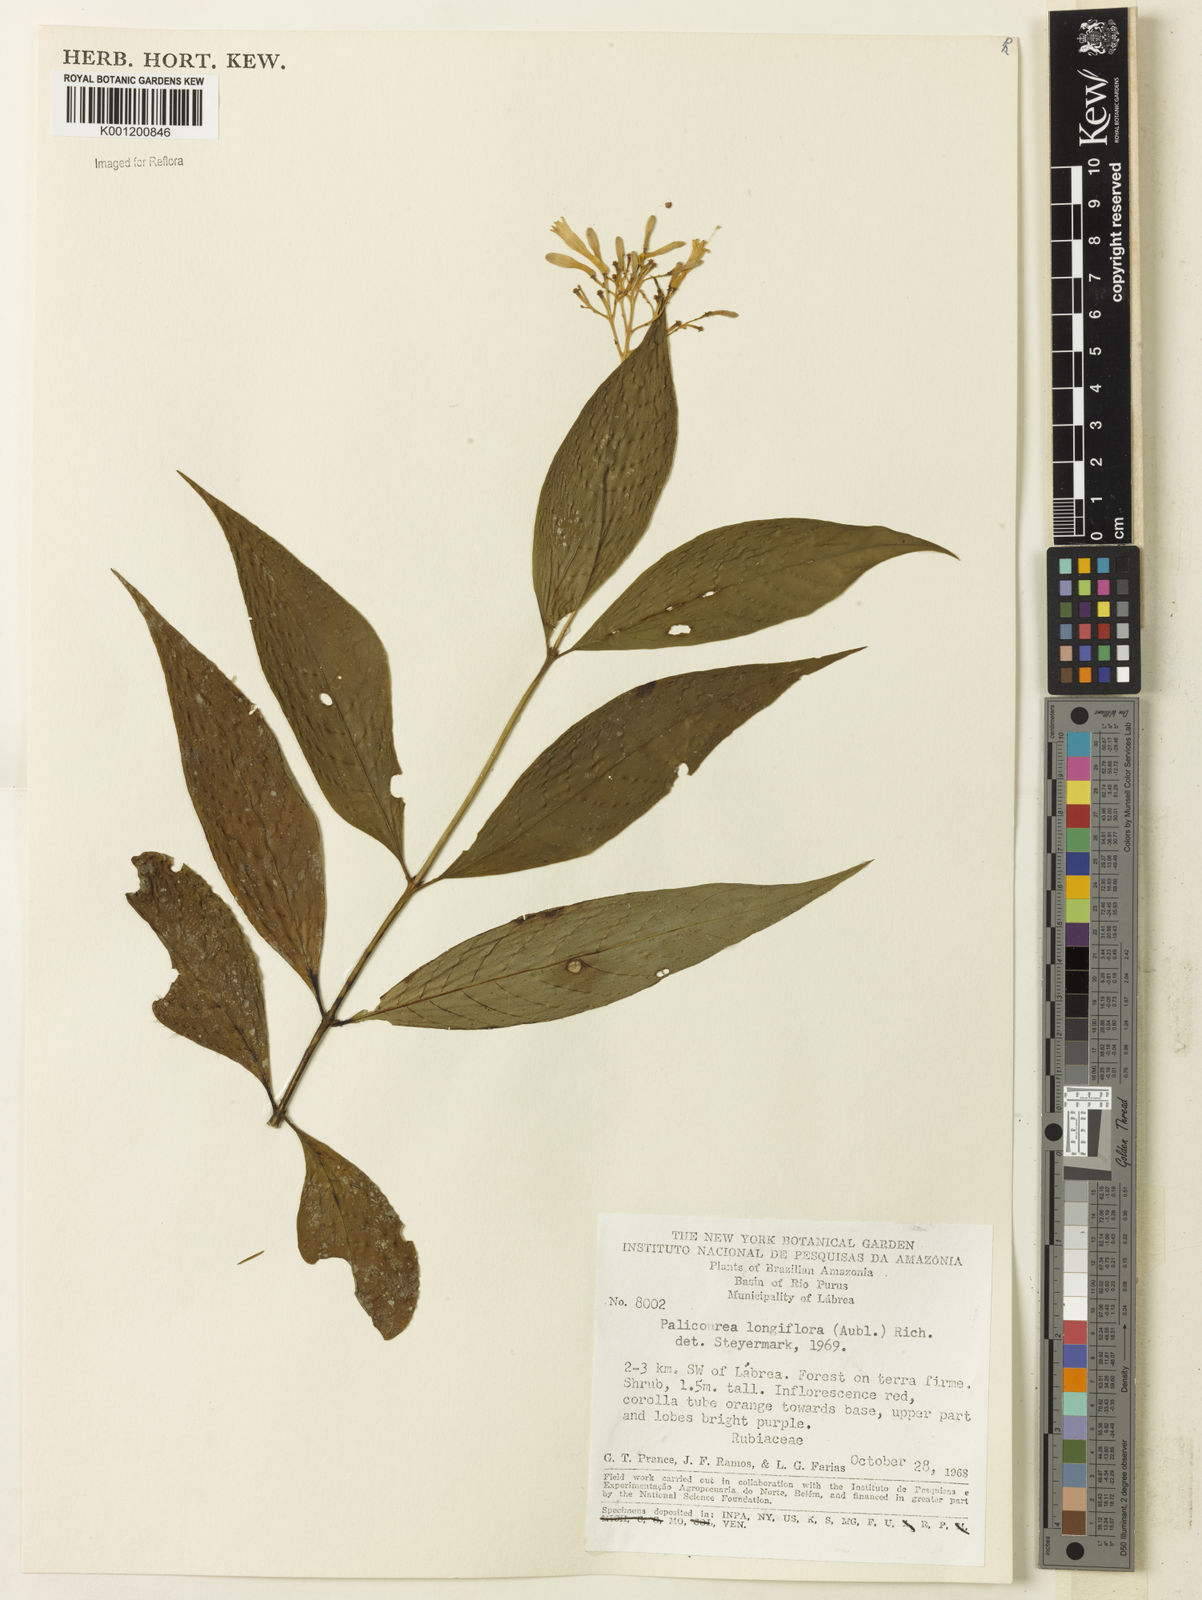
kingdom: Plantae
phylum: Tracheophyta
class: Magnoliopsida
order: Gentianales
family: Rubiaceae
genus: Palicourea
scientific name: Palicourea longiflora
